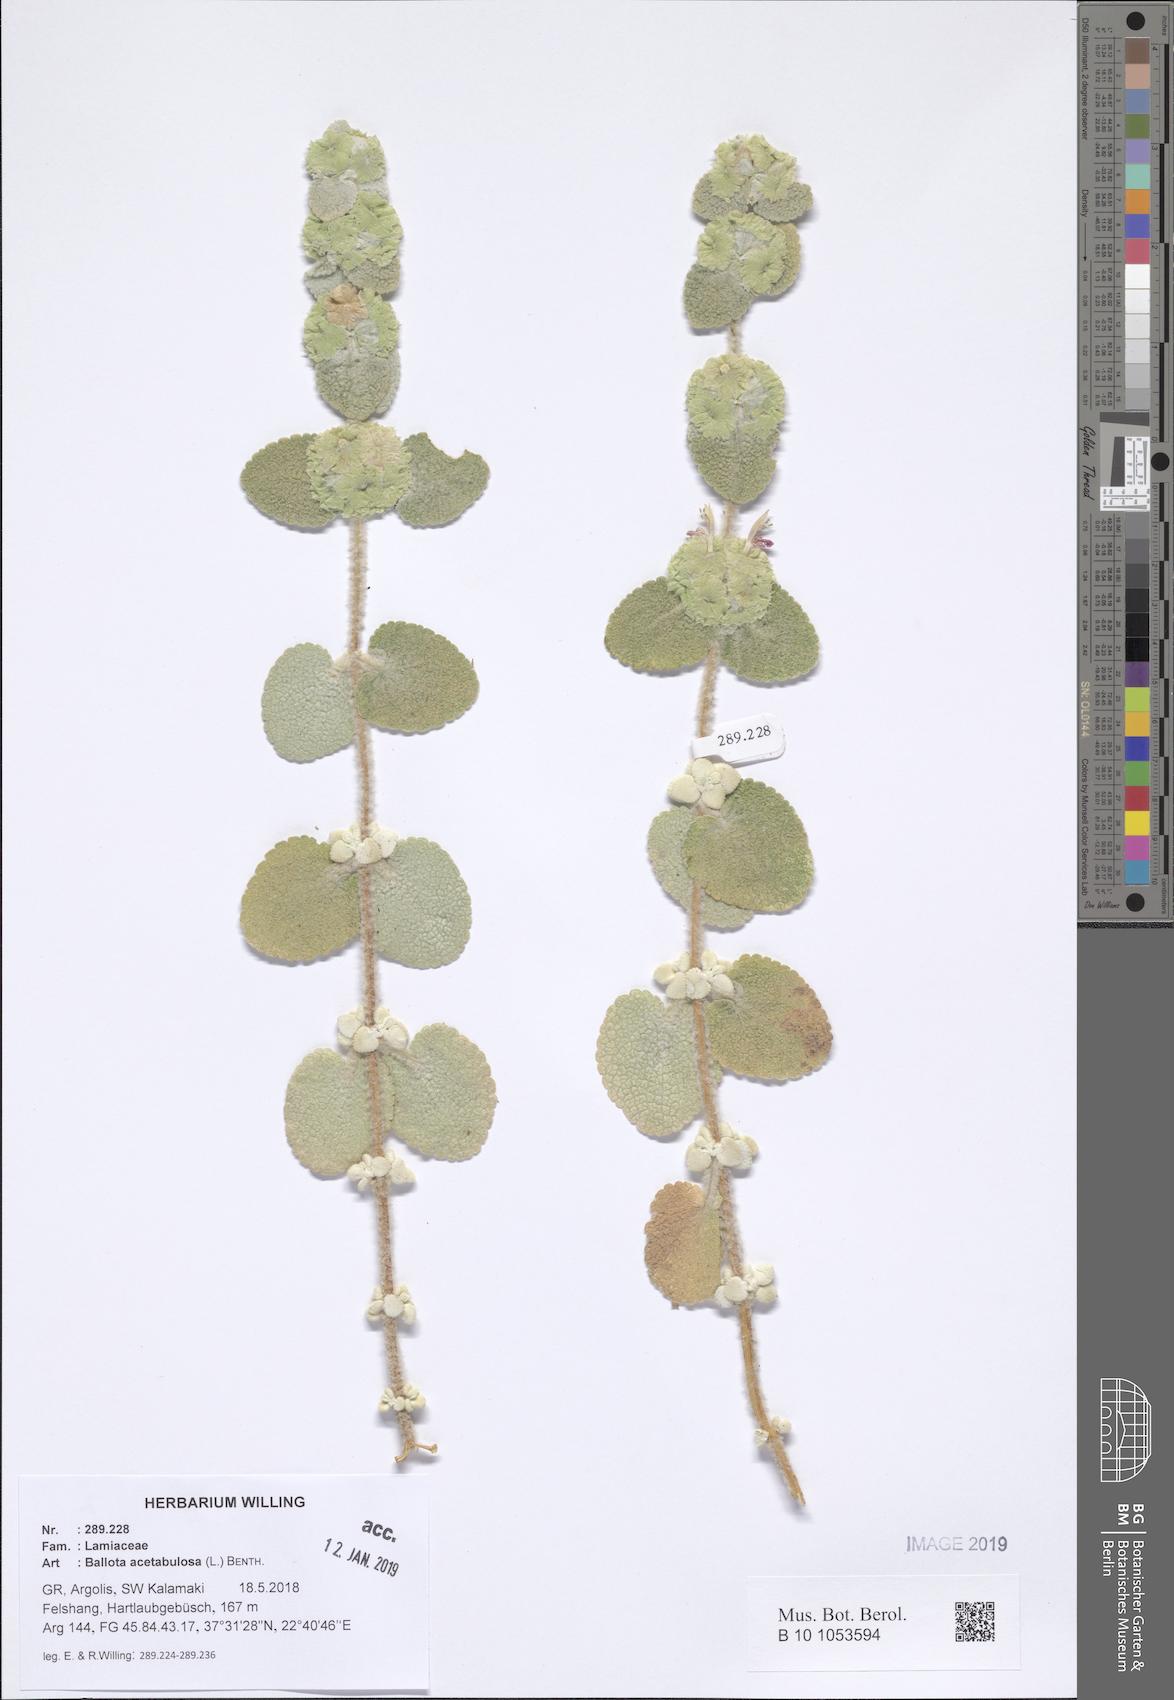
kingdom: Plantae
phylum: Tracheophyta
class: Magnoliopsida
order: Lamiales
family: Lamiaceae
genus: Pseudodictamnus
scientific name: Pseudodictamnus acetabulosus
